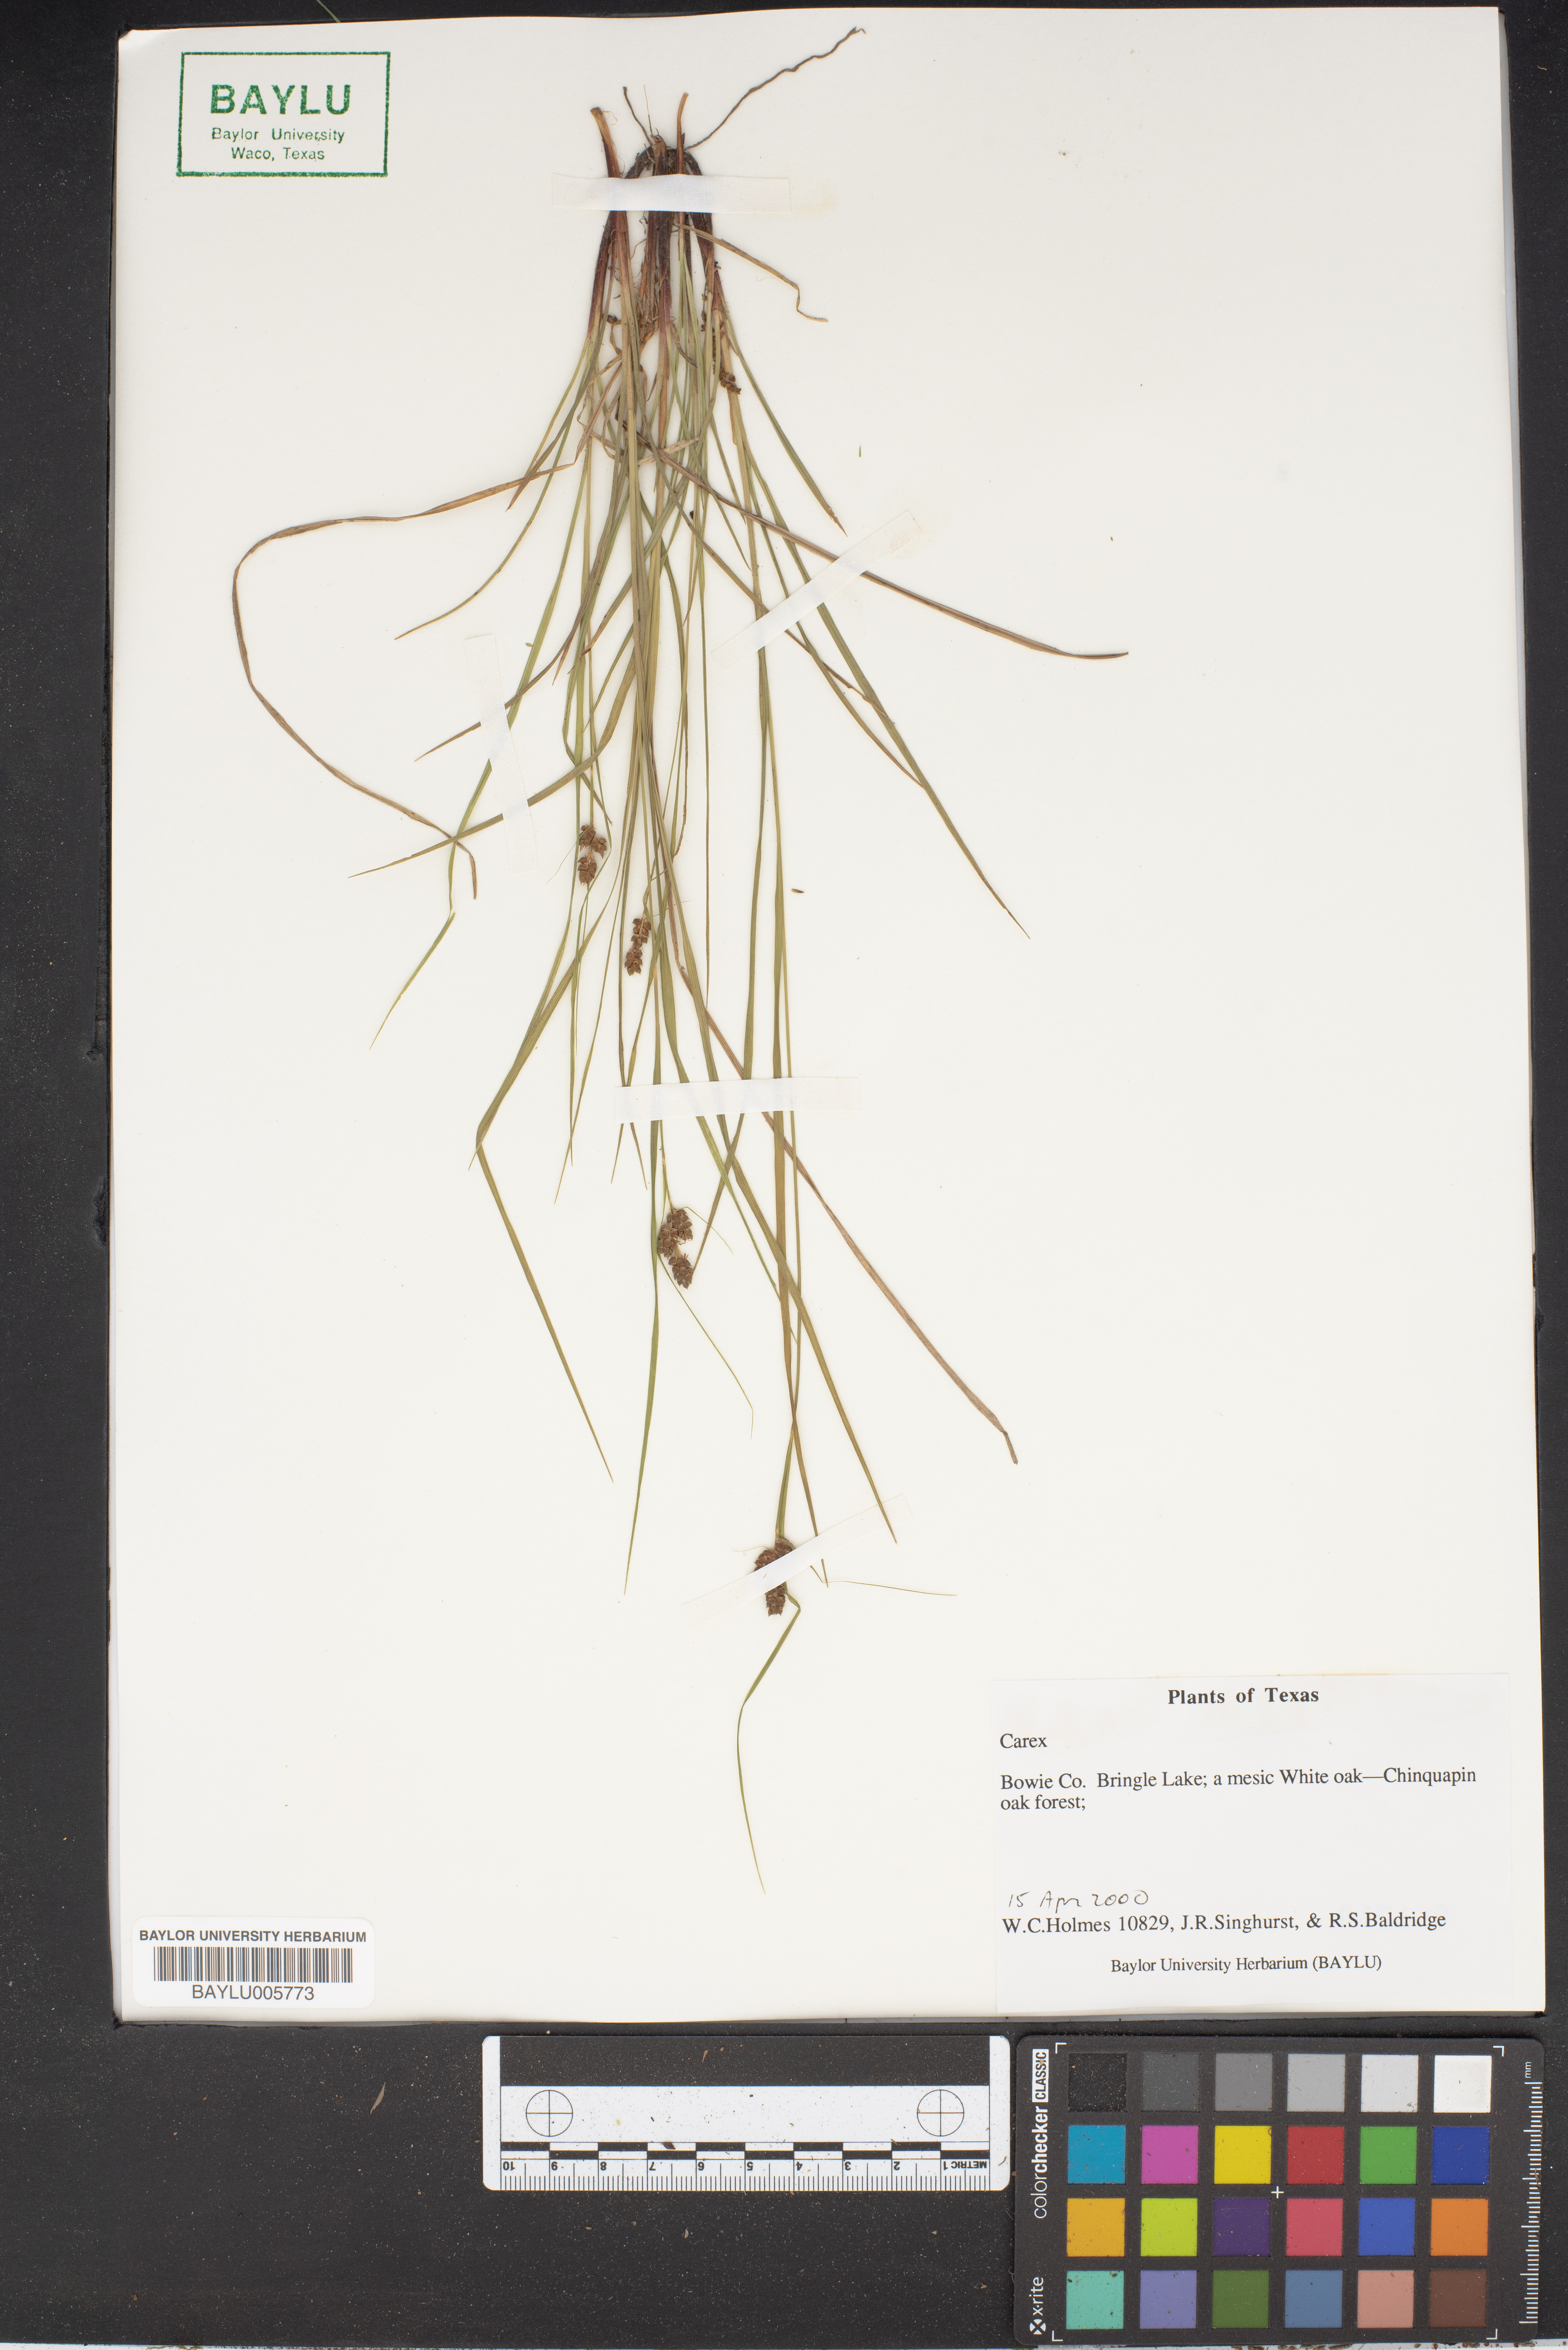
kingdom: Plantae
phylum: Tracheophyta
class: Liliopsida
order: Poales
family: Cyperaceae
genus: Carex
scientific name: Carex
